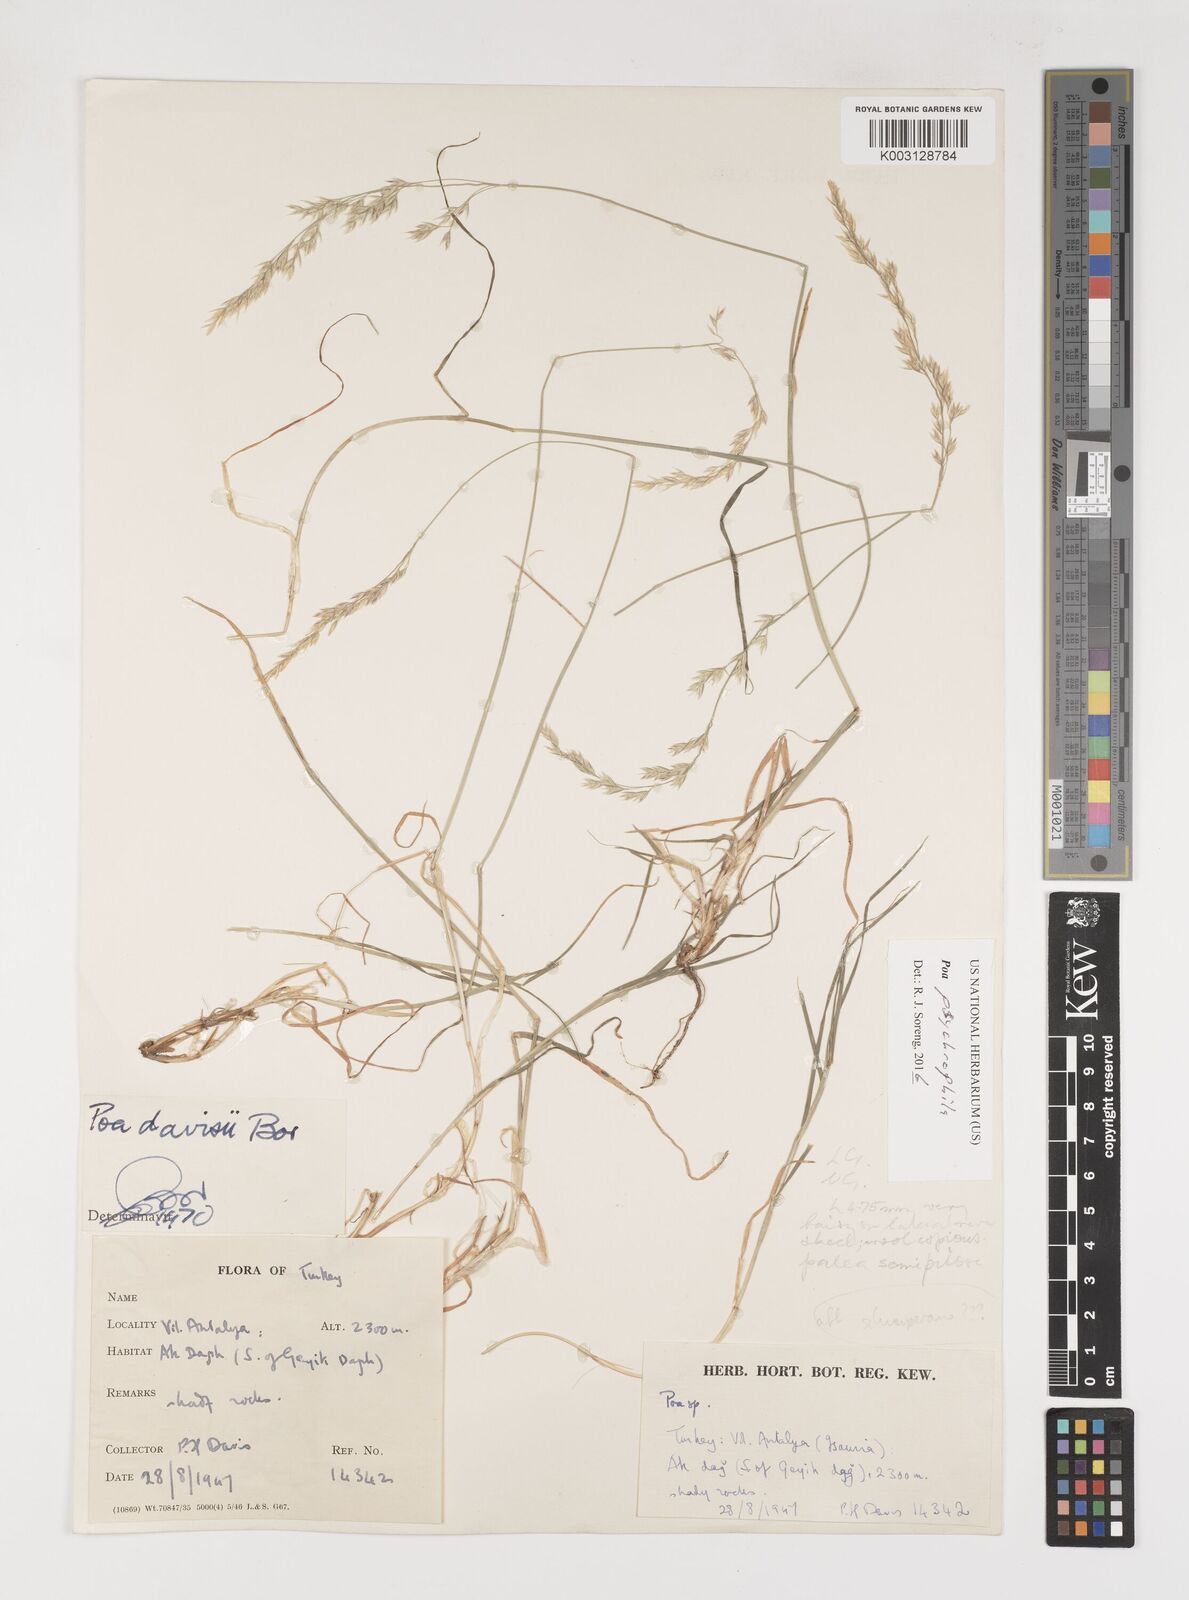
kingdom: Plantae
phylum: Tracheophyta
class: Liliopsida
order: Poales
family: Poaceae
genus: Poa
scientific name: Poa cenisia
